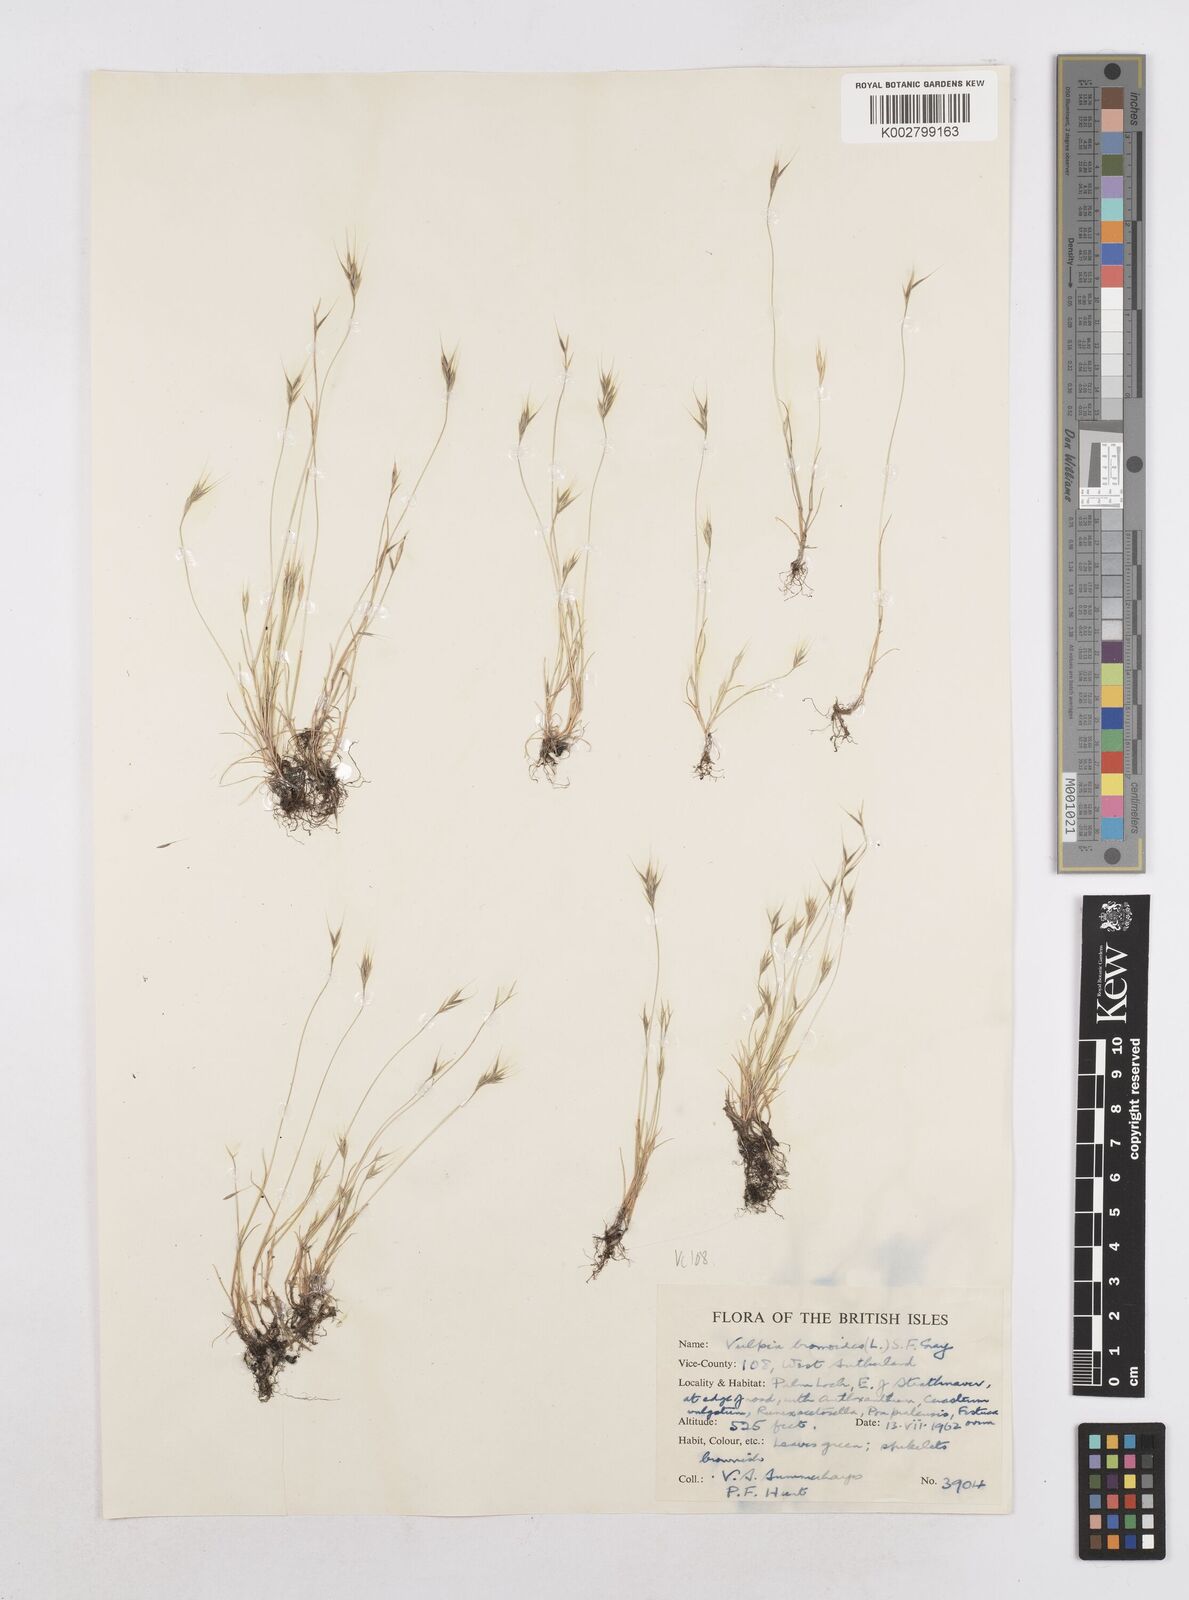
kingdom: Plantae
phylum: Tracheophyta
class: Liliopsida
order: Poales
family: Poaceae
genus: Festuca
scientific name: Festuca bromoides
